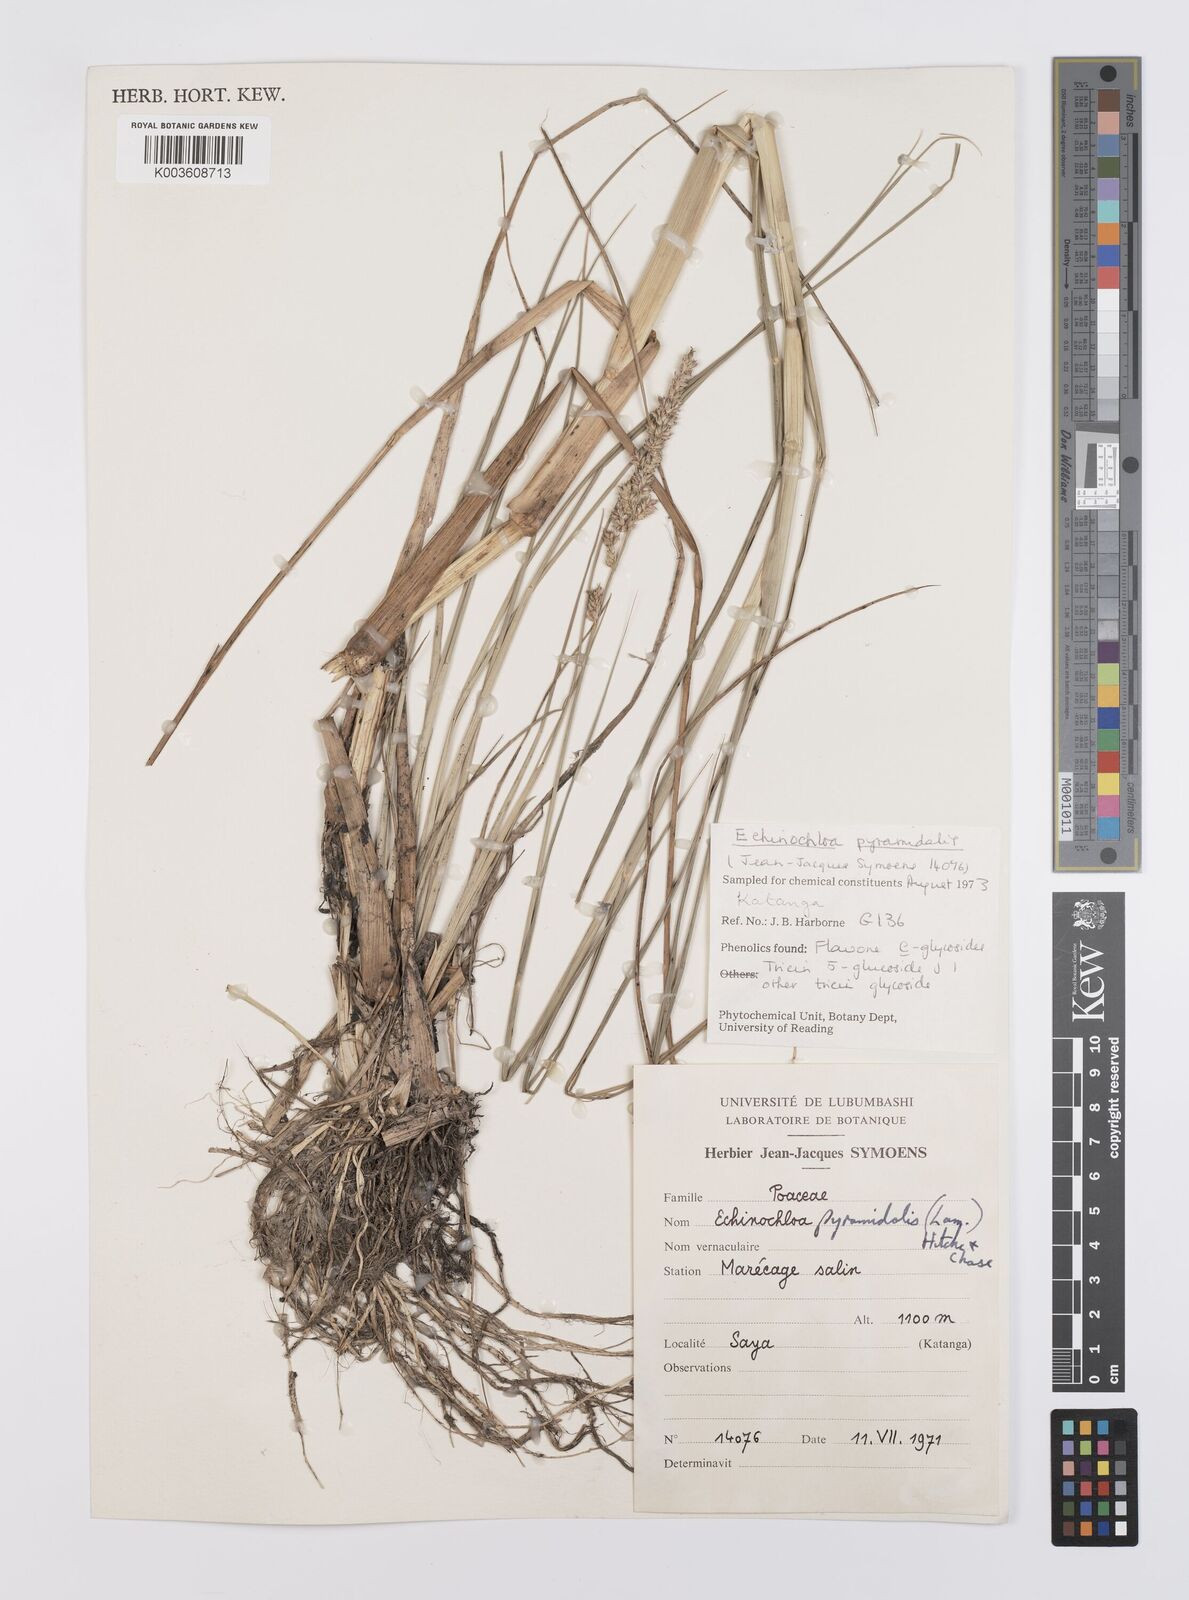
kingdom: Plantae
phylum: Tracheophyta
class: Liliopsida
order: Poales
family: Poaceae
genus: Echinochloa
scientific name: Echinochloa pyramidalis
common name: Antelope grass
